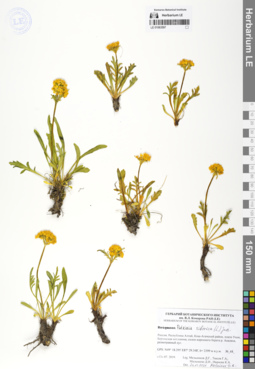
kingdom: Plantae
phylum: Tracheophyta
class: Magnoliopsida
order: Dipsacales
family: Caprifoliaceae
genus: Patrinia
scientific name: Patrinia sibirica
